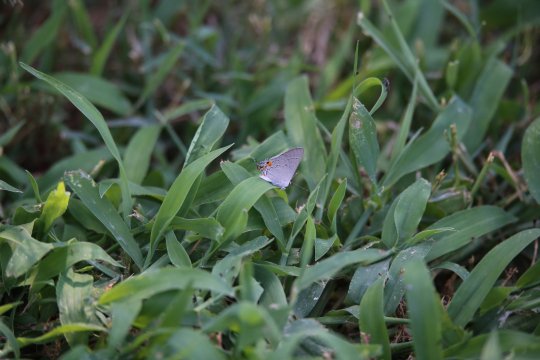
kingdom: Animalia
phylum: Arthropoda
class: Insecta
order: Lepidoptera
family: Lycaenidae
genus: Strymon
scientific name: Strymon melinus
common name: Gray Hairstreak
